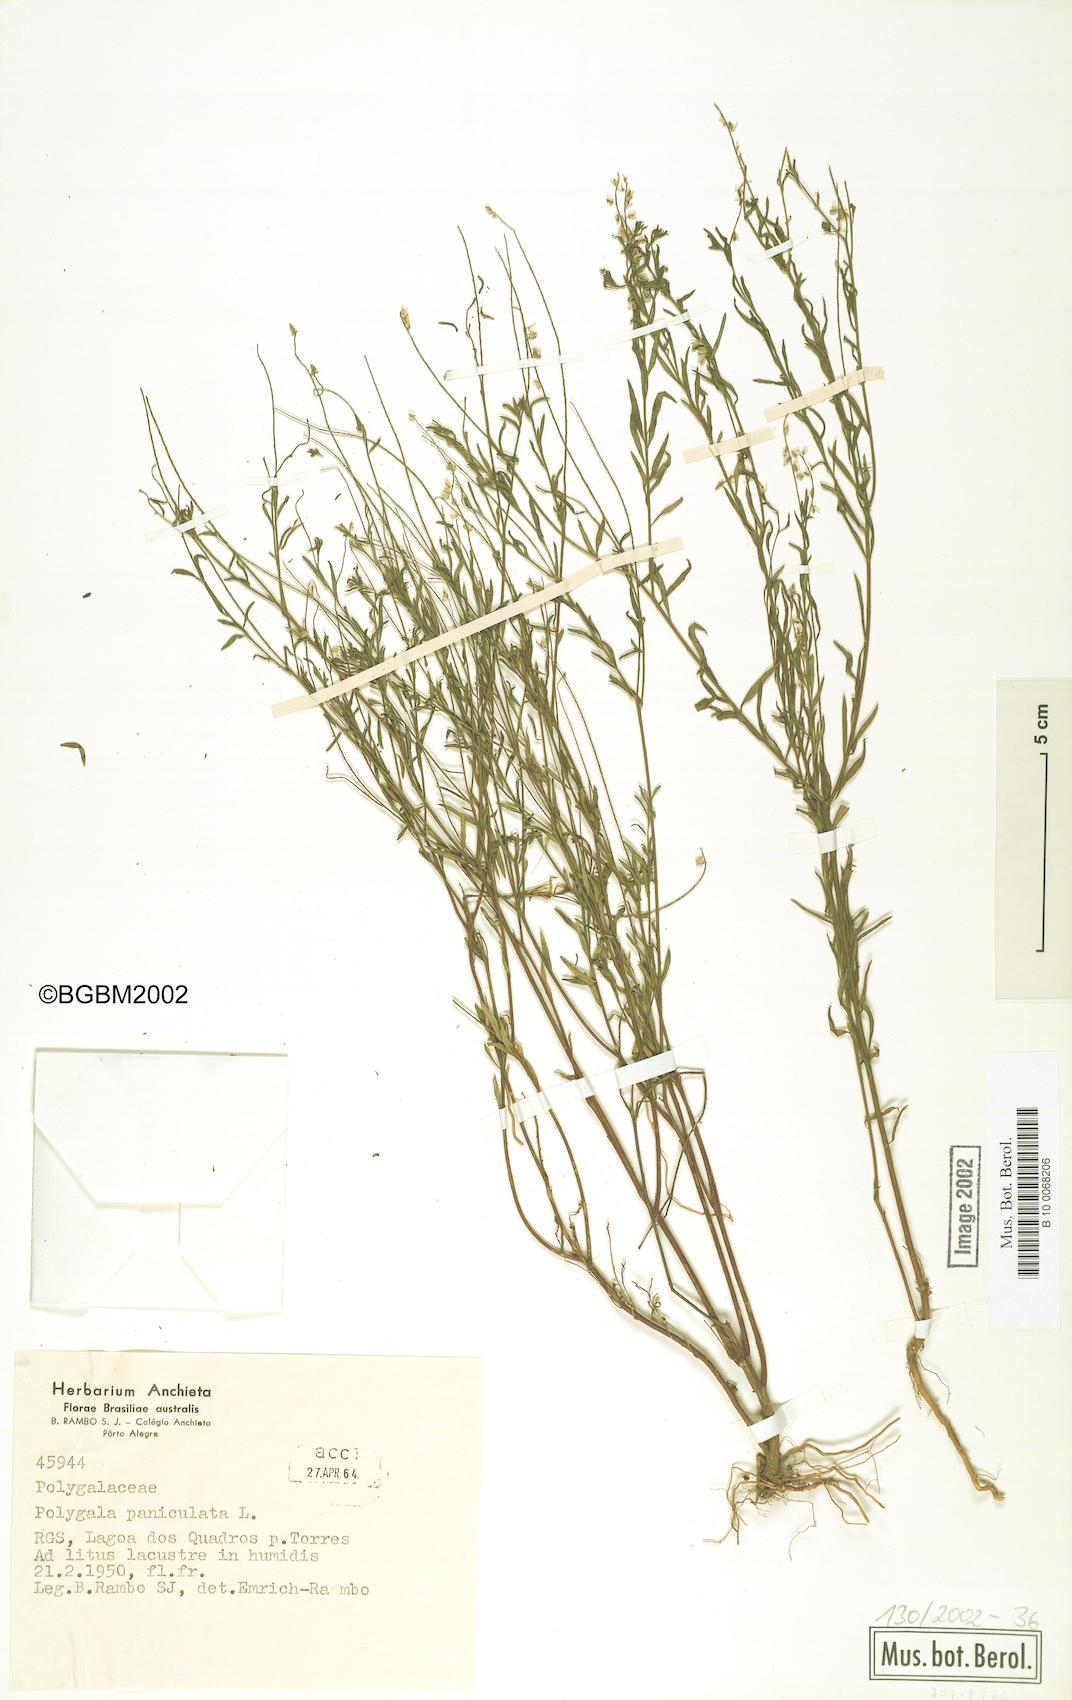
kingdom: Plantae
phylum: Tracheophyta
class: Magnoliopsida
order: Fabales
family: Polygalaceae
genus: Polygala
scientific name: Polygala paniculata
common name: Orosne
